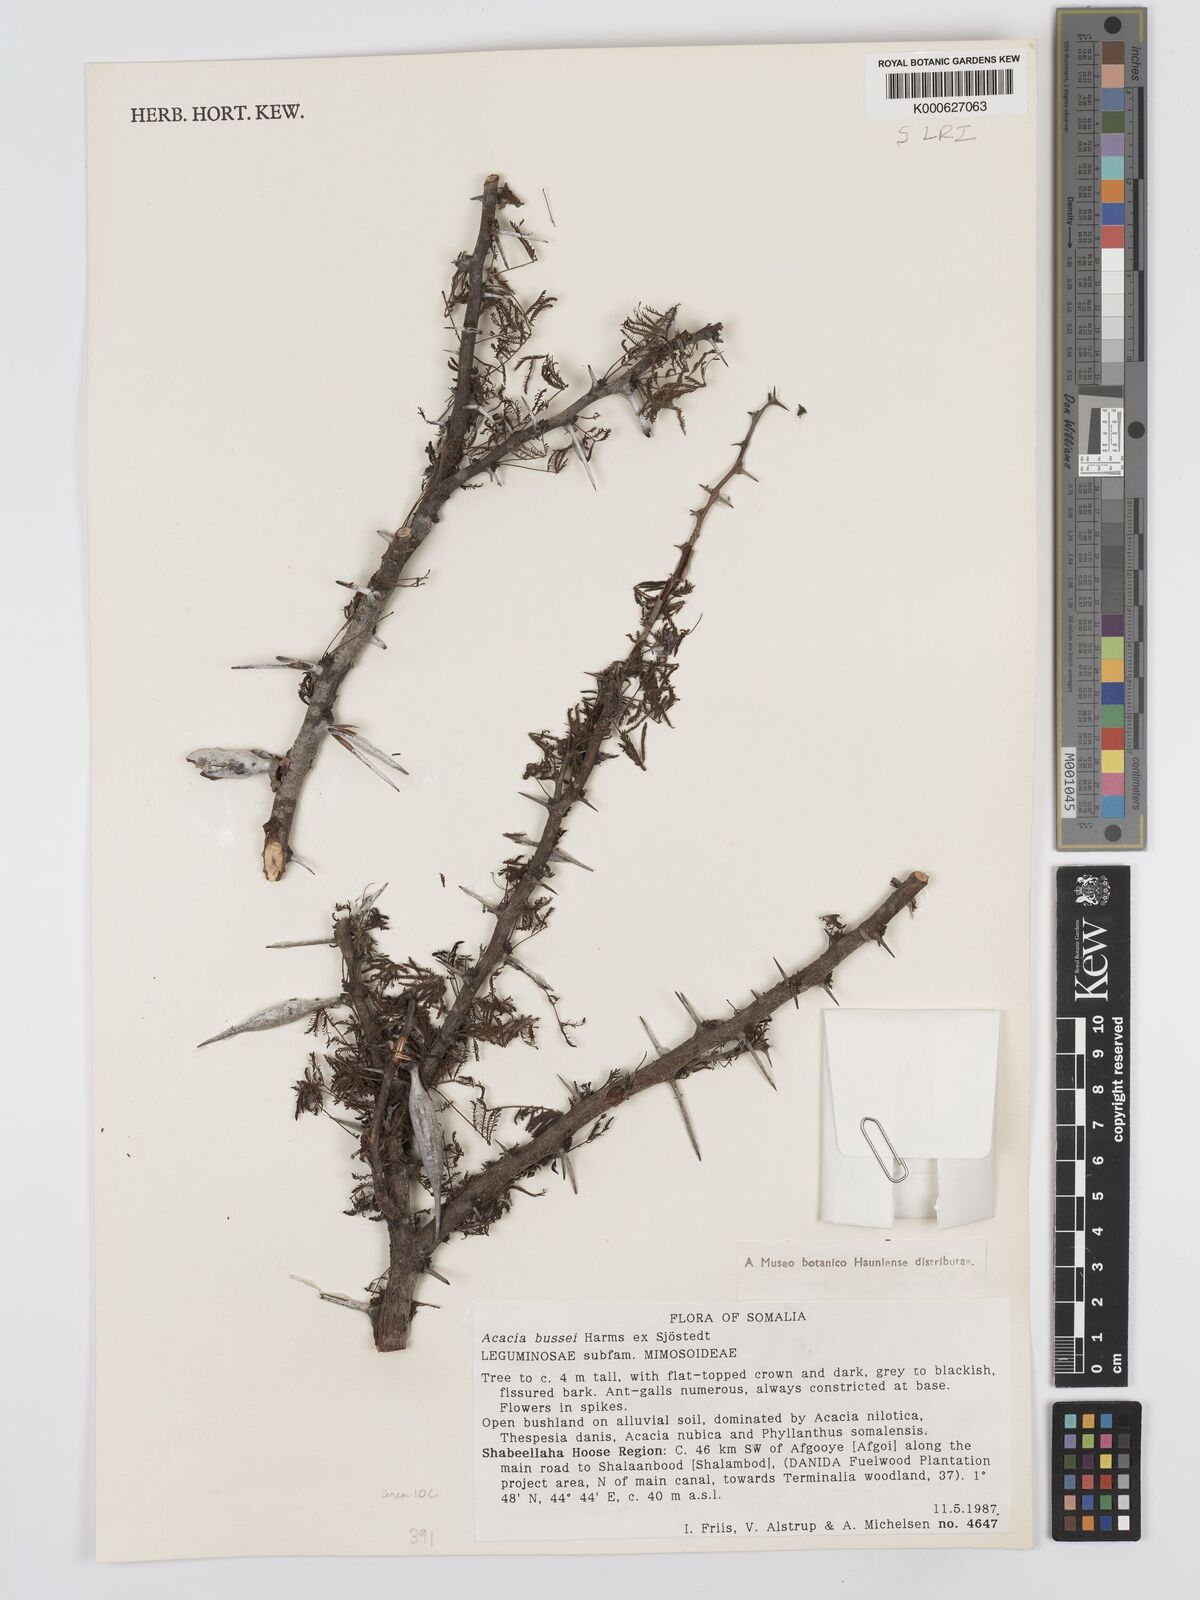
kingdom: Plantae
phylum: Tracheophyta
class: Magnoliopsida
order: Fabales
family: Fabaceae
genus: Vachellia
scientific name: Vachellia bussei
